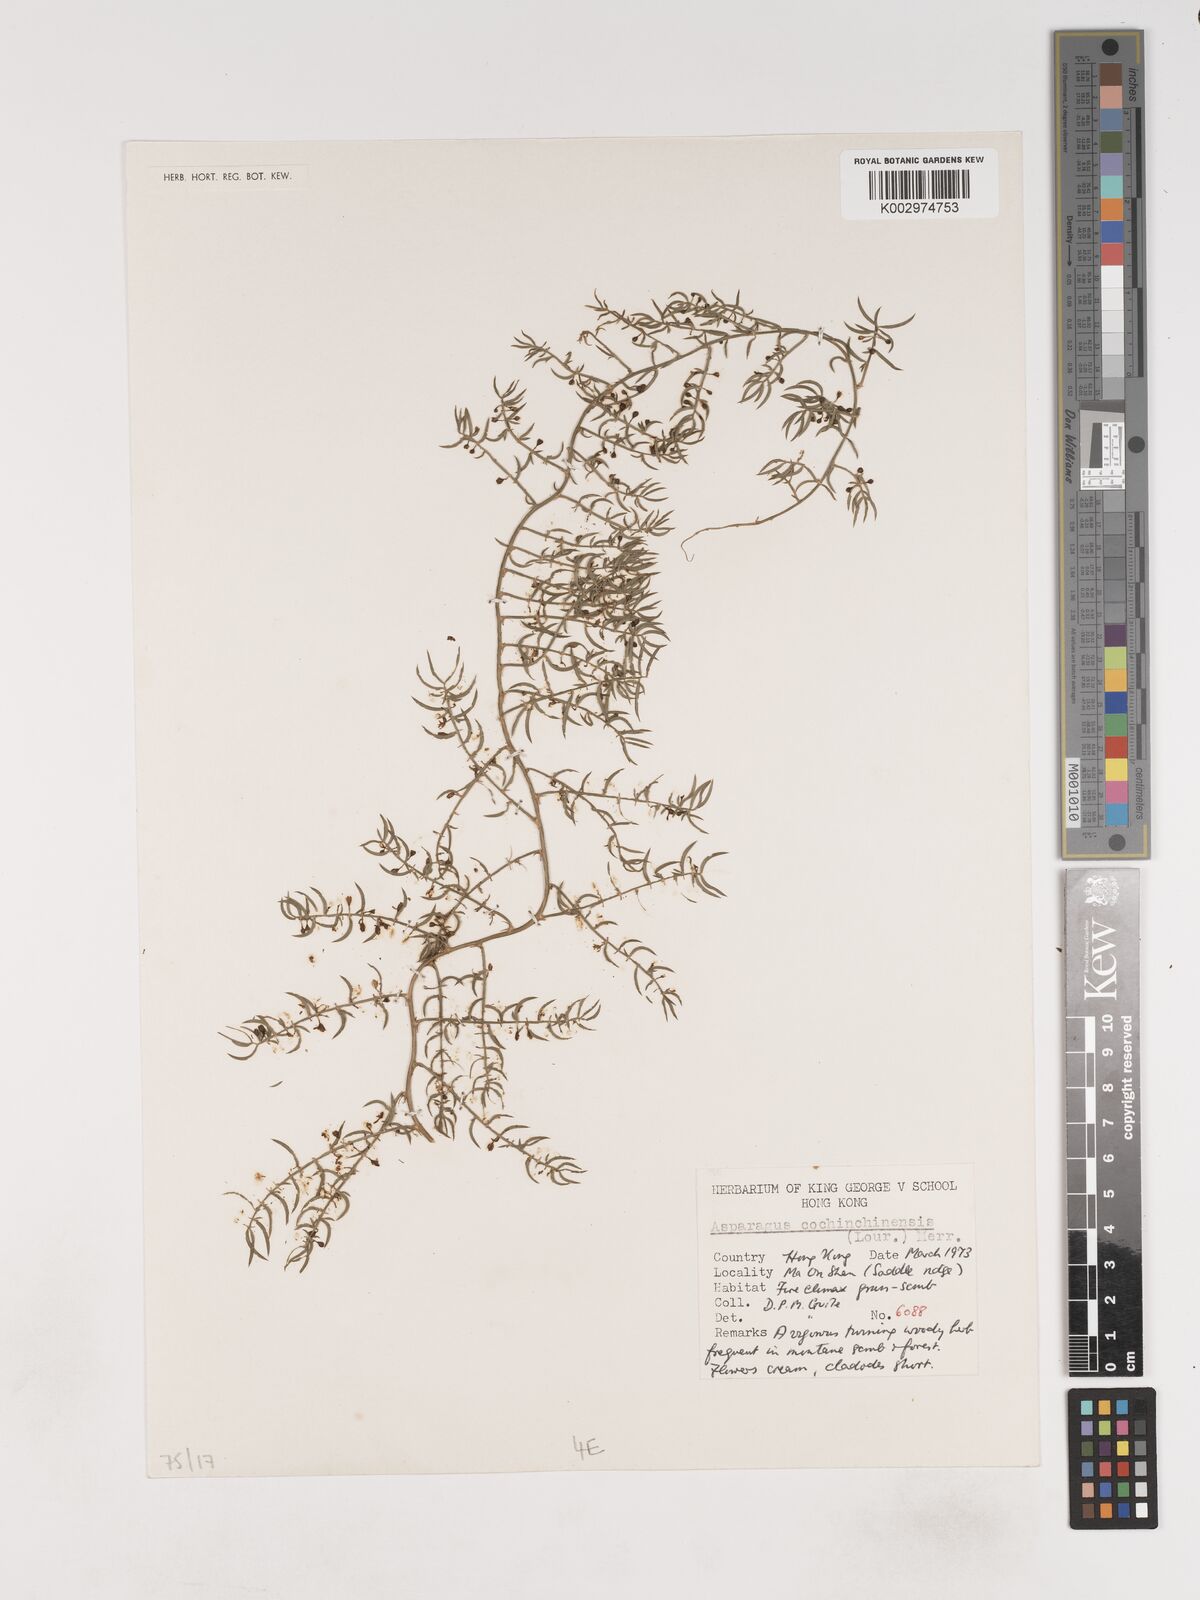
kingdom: Plantae
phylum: Tracheophyta
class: Liliopsida
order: Asparagales
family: Asparagaceae
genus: Asparagus
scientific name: Asparagus
